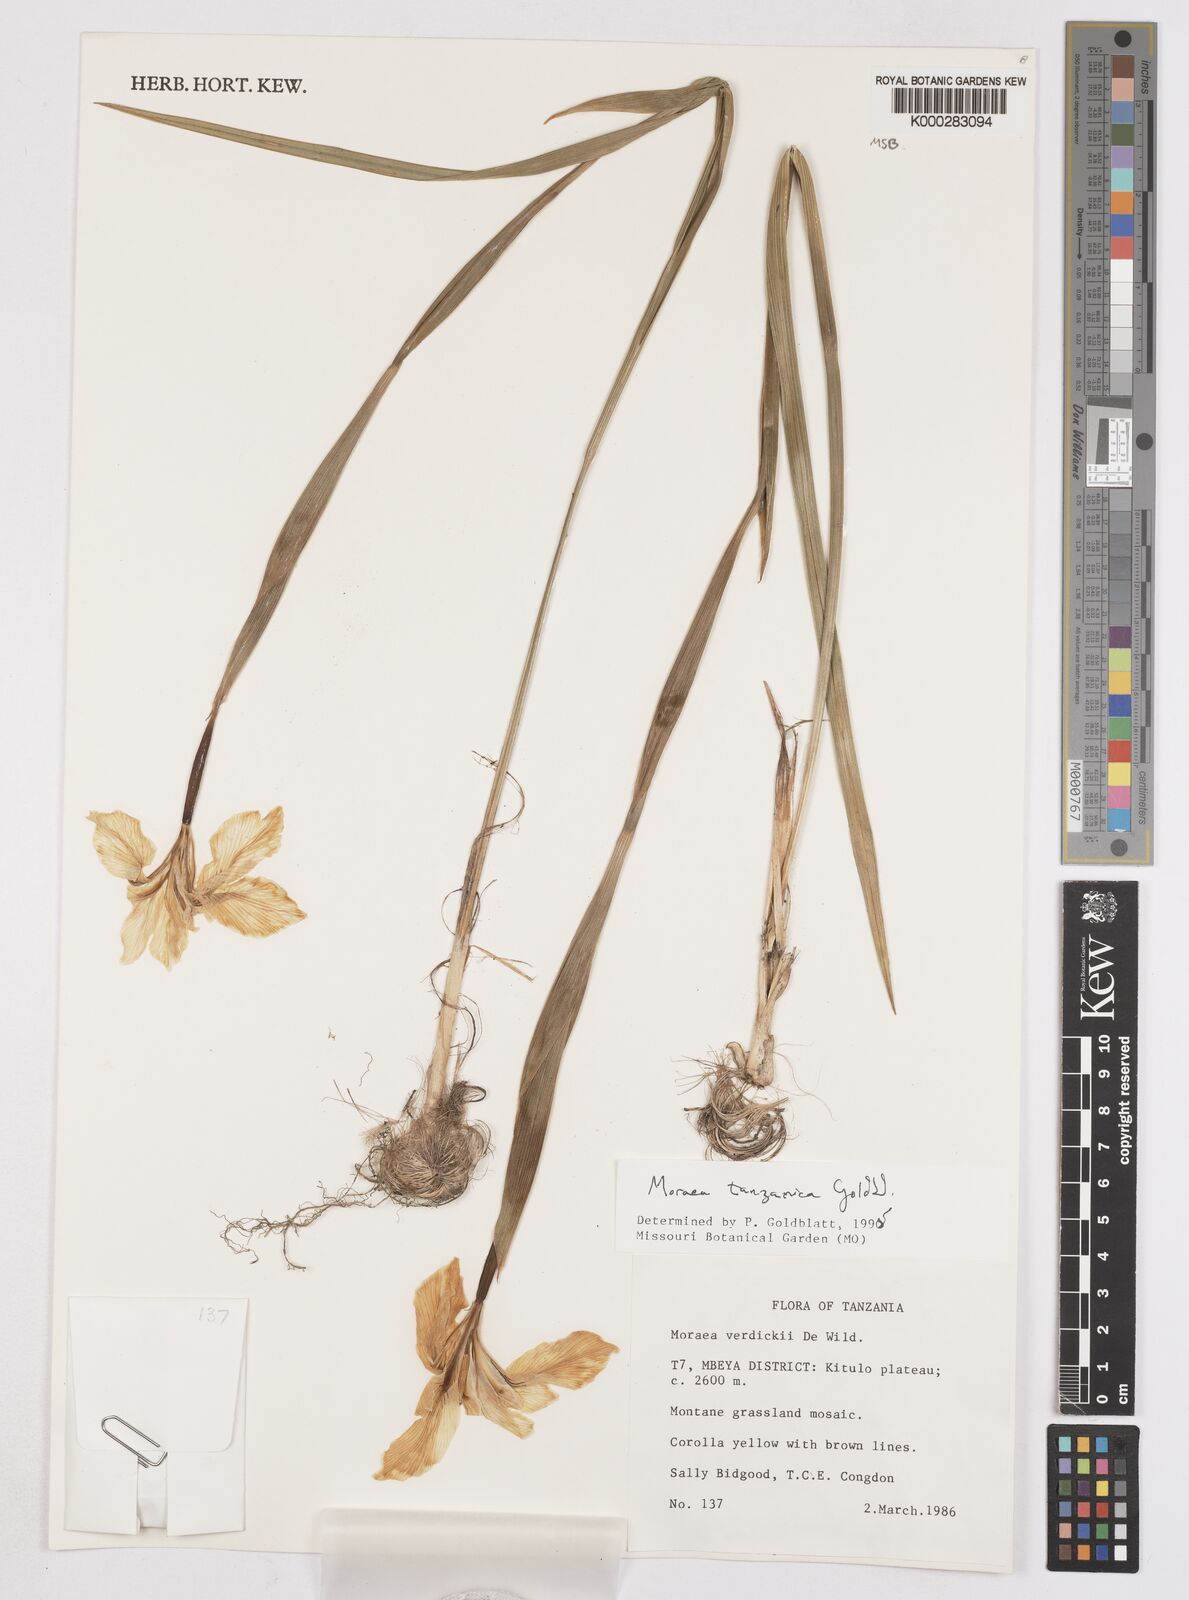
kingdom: Plantae
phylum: Tracheophyta
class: Liliopsida
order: Asparagales
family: Iridaceae
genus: Moraea
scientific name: Moraea tanzanica
